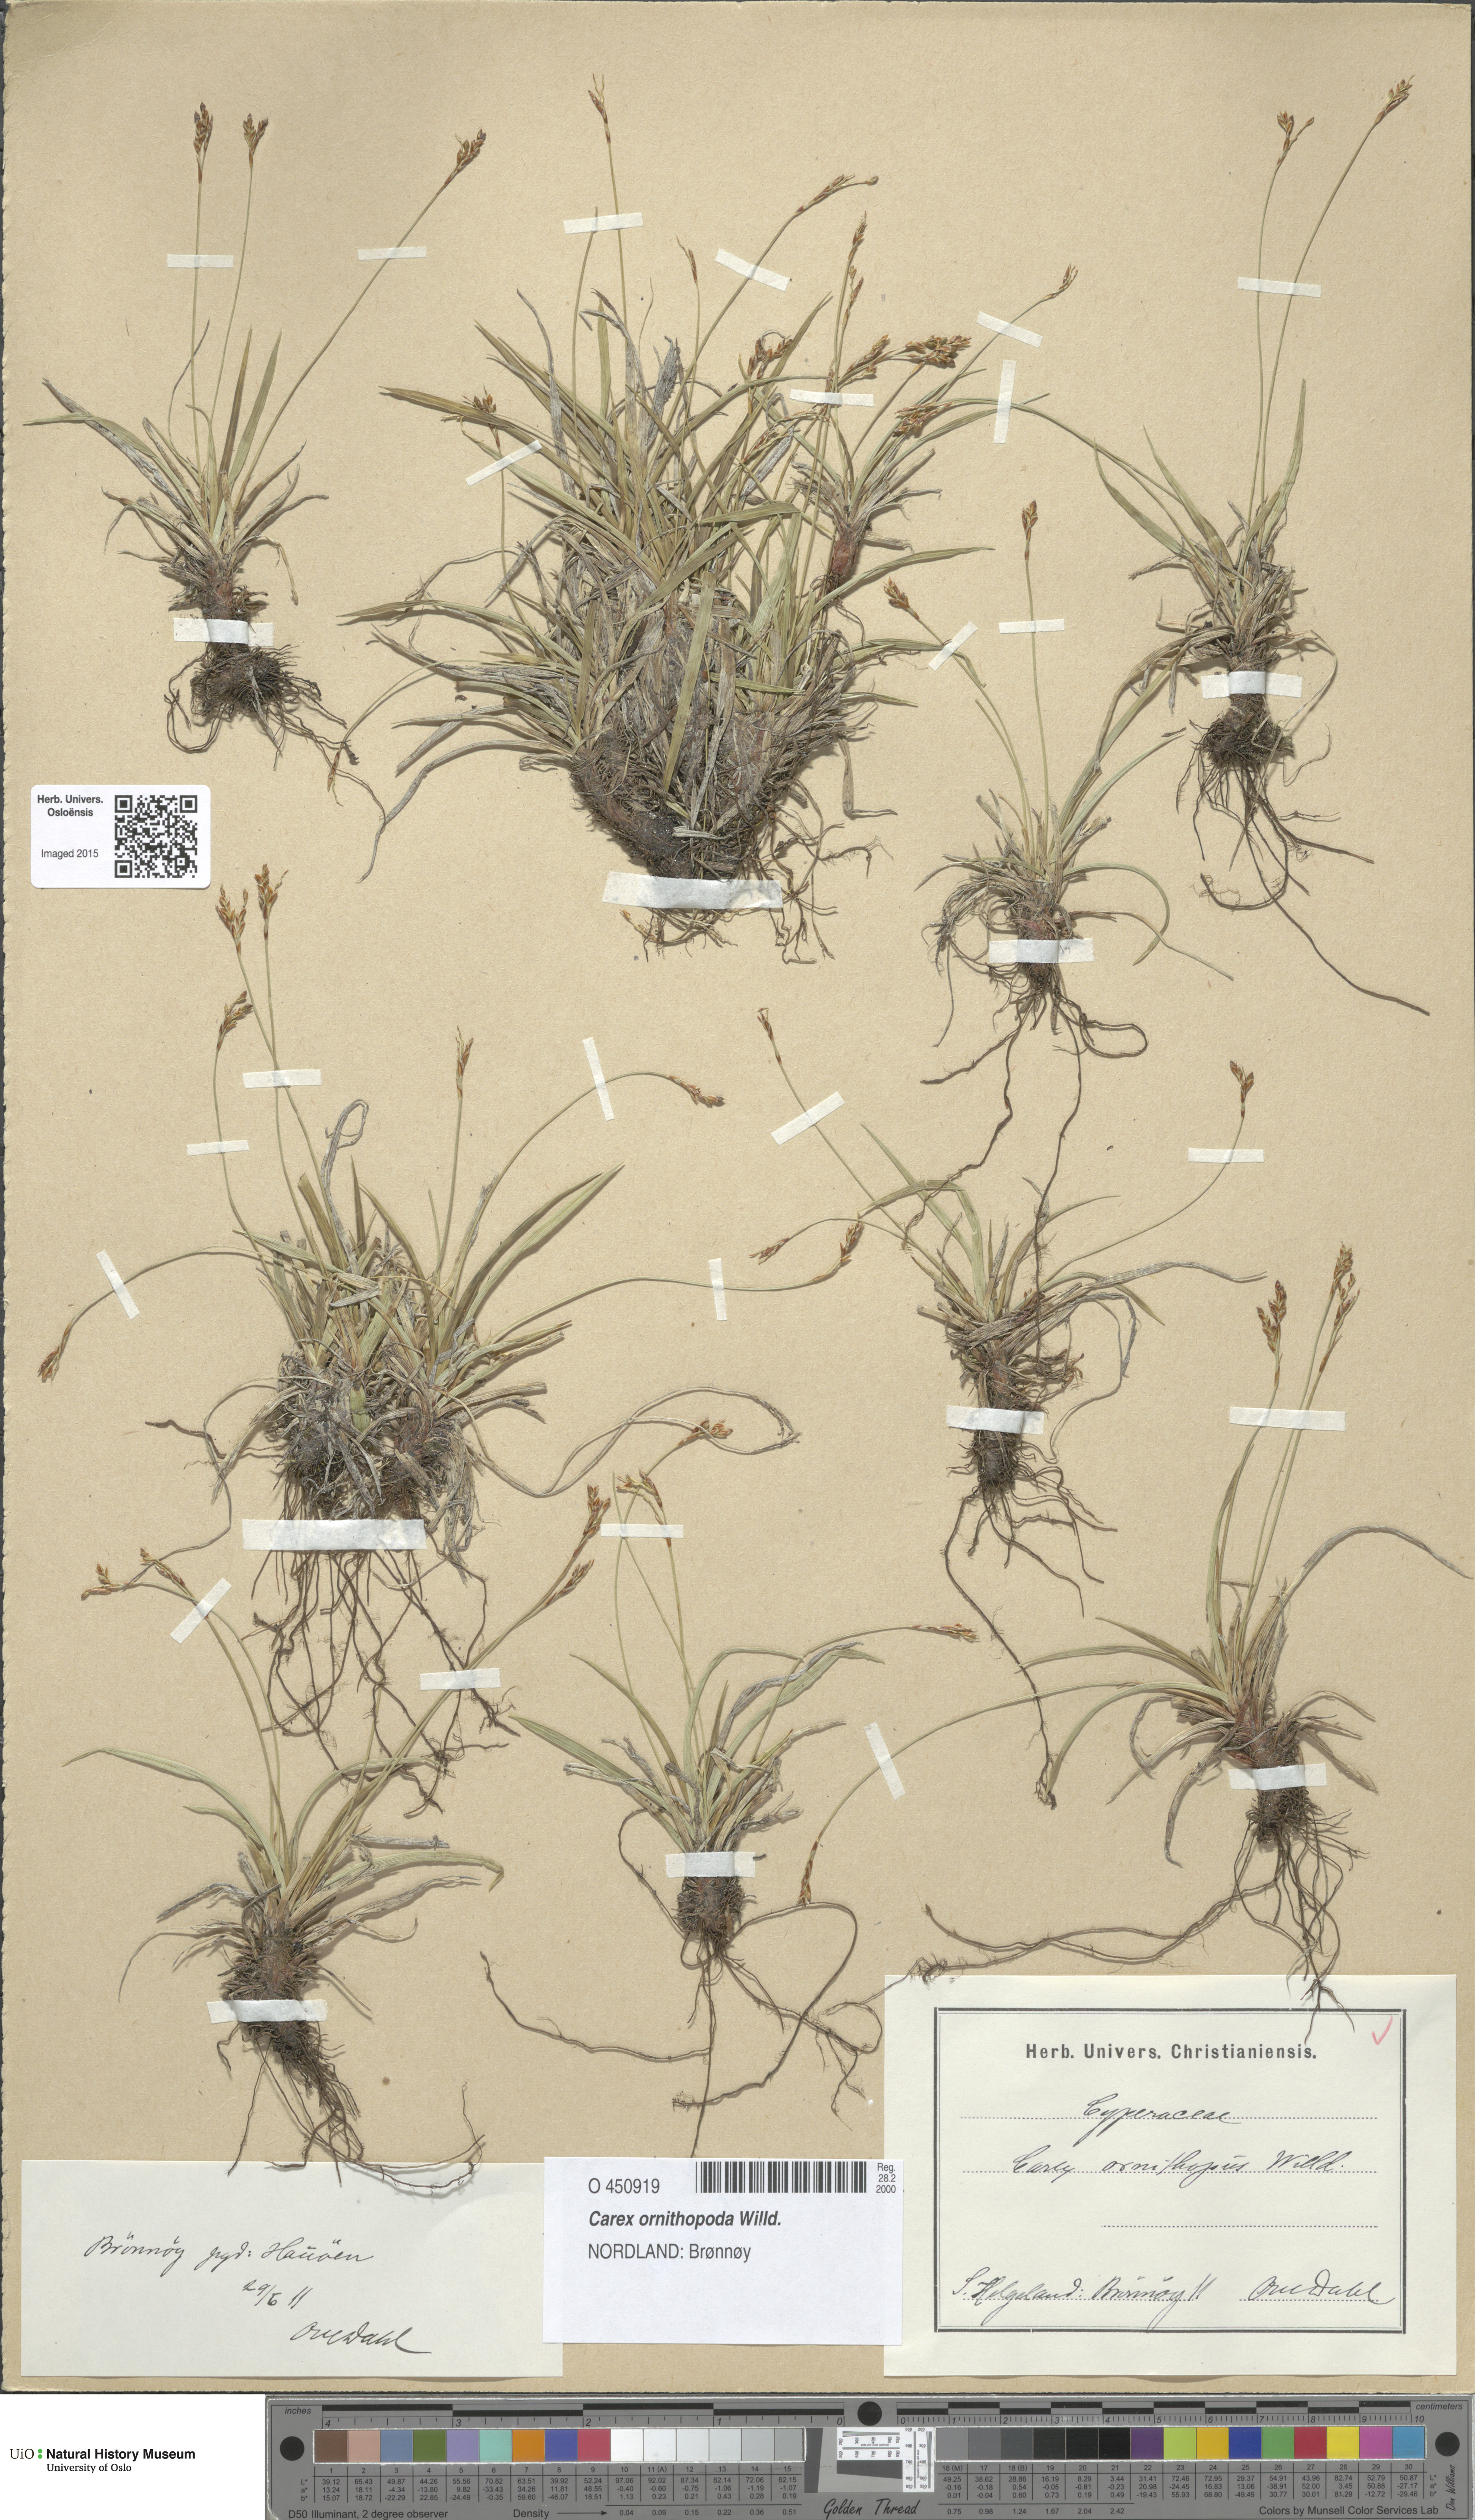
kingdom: Plantae
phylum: Tracheophyta
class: Liliopsida
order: Poales
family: Cyperaceae
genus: Carex
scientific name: Carex ornithopoda
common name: Bird's-foot sedge
